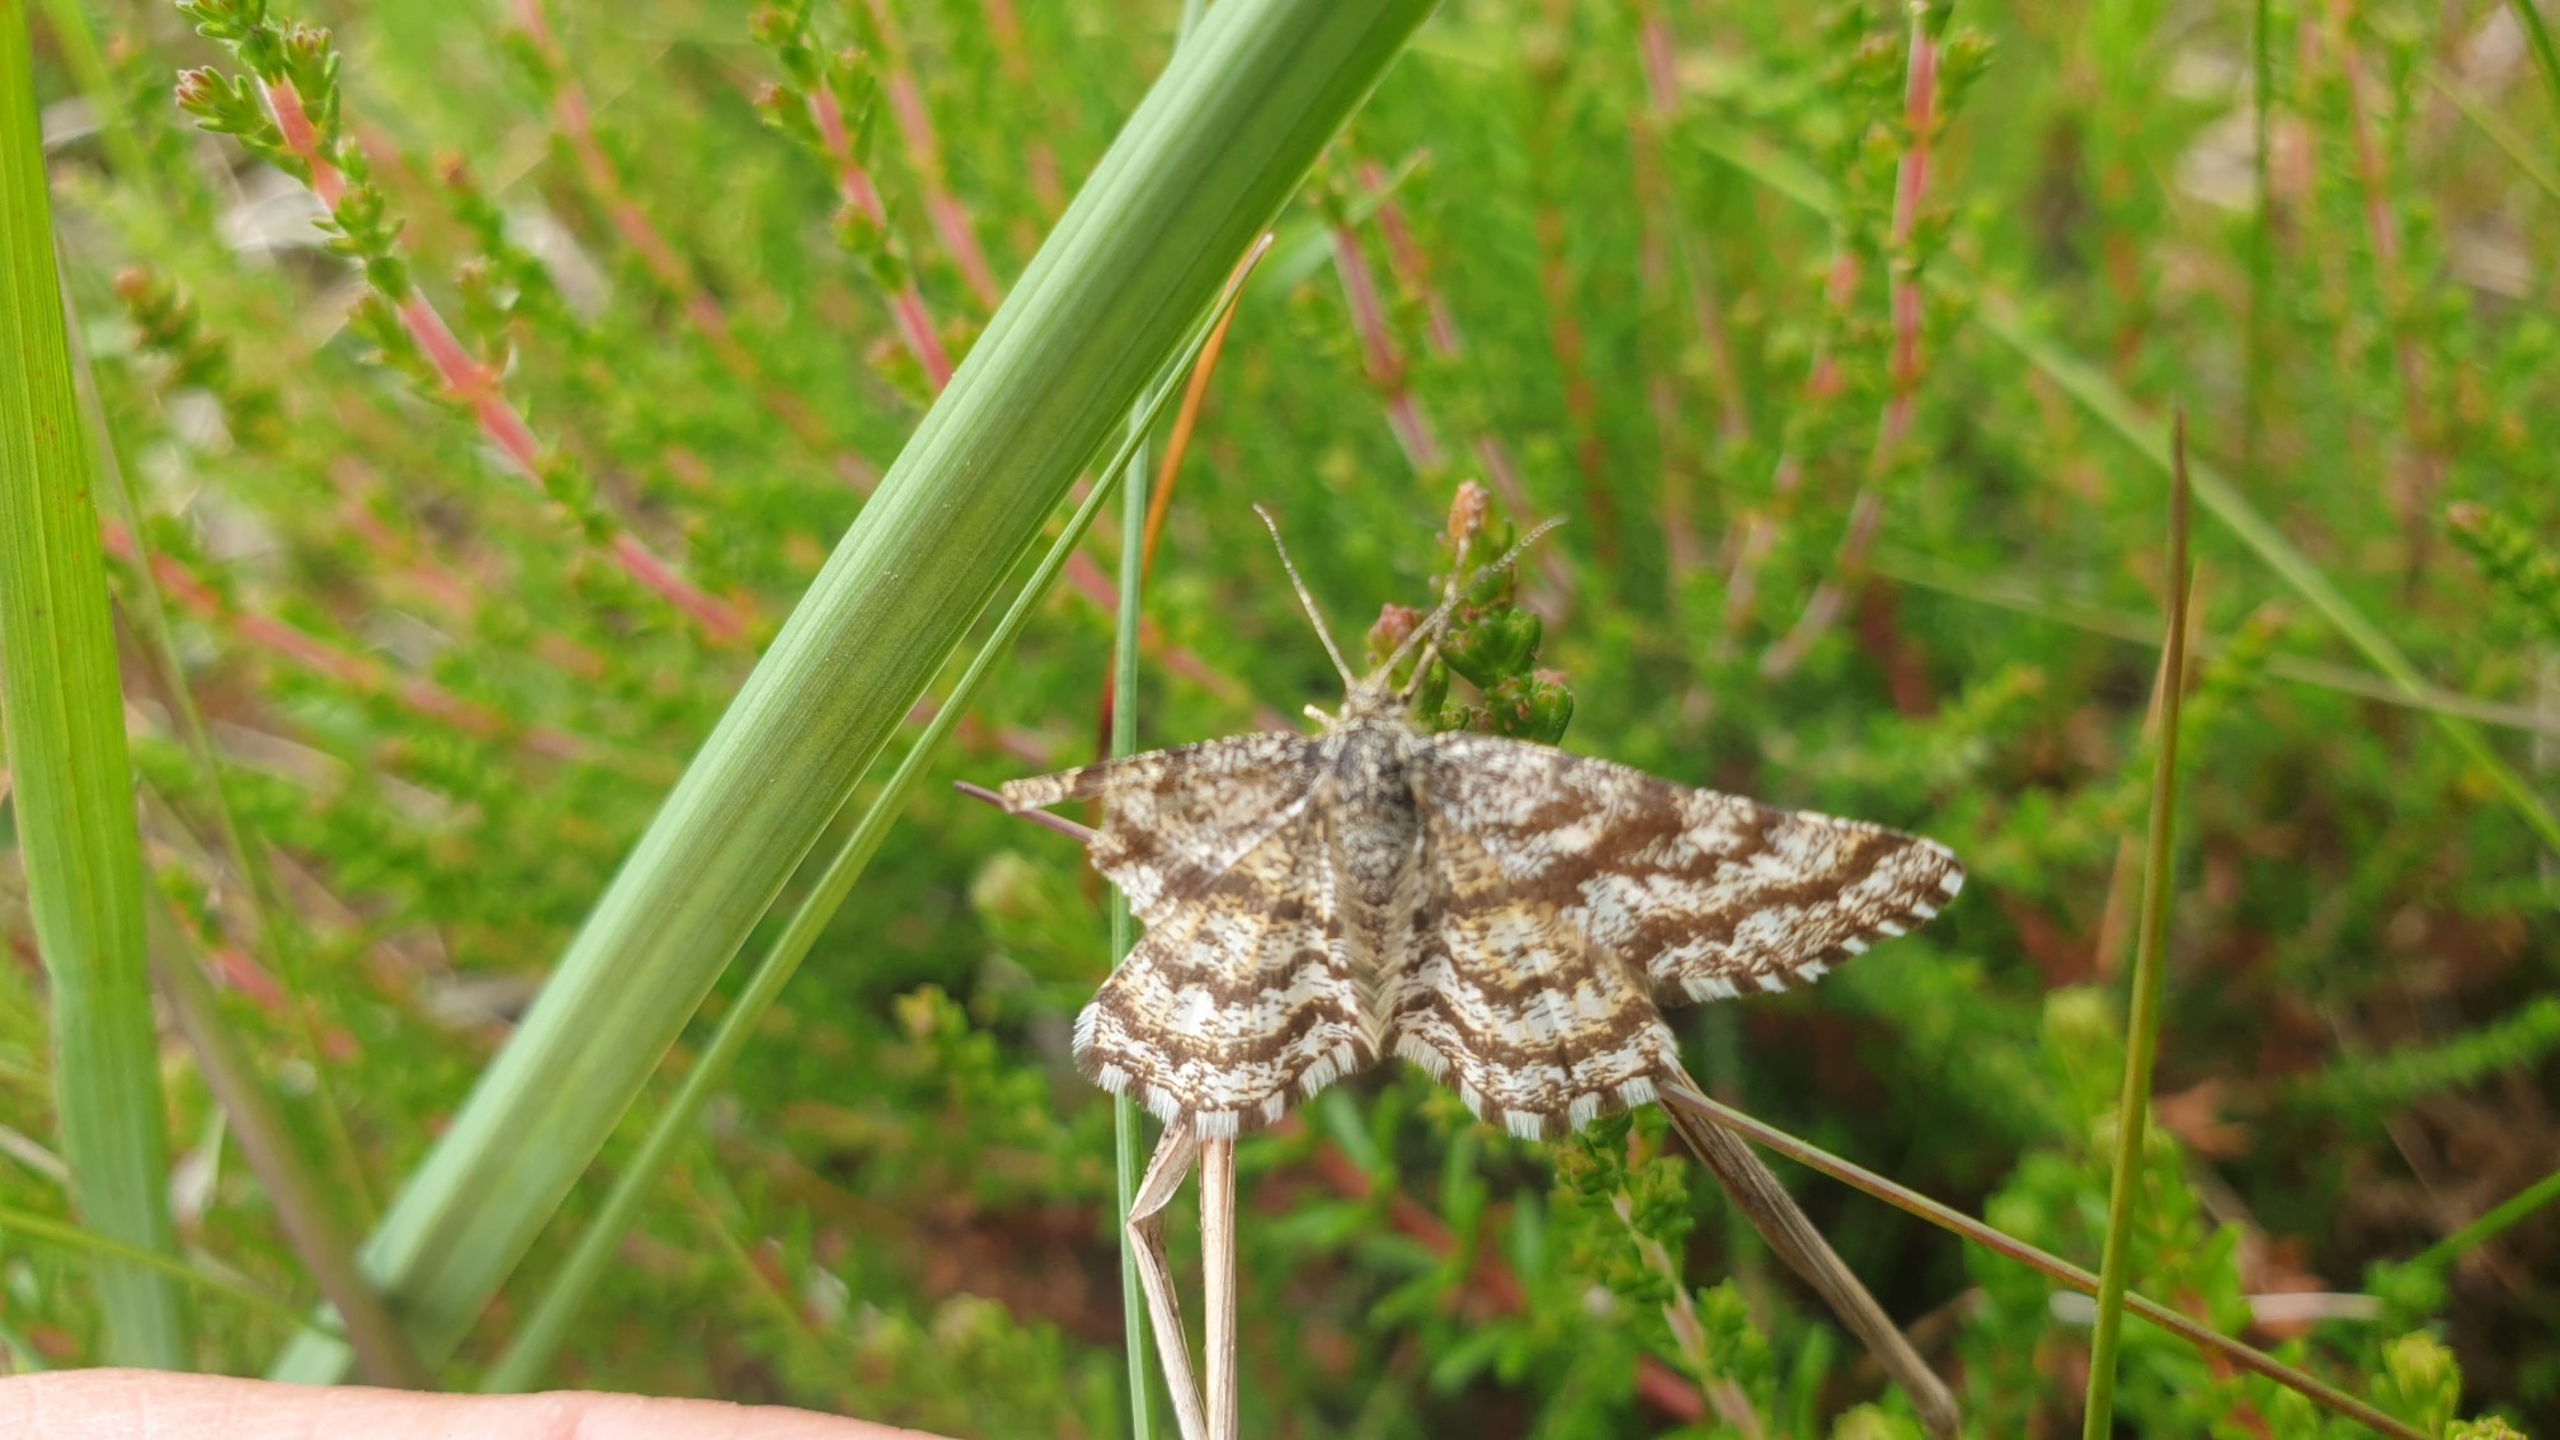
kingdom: Animalia
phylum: Arthropoda
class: Insecta
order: Lepidoptera
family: Geometridae
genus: Ematurga
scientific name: Ematurga atomaria
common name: Lyngmåler
